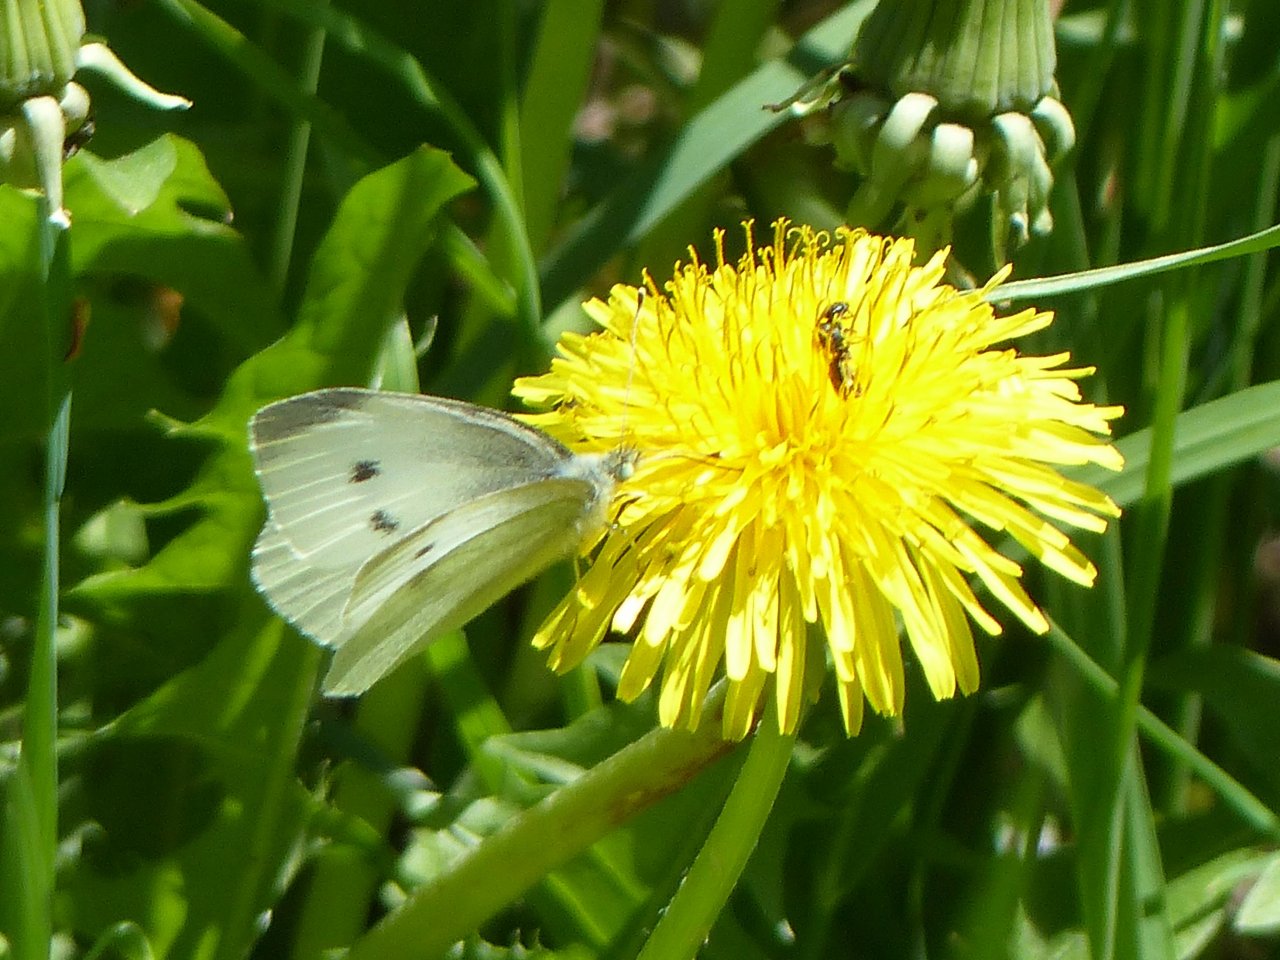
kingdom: Animalia
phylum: Arthropoda
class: Insecta
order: Lepidoptera
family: Pieridae
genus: Pieris
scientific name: Pieris rapae
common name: Cabbage White
